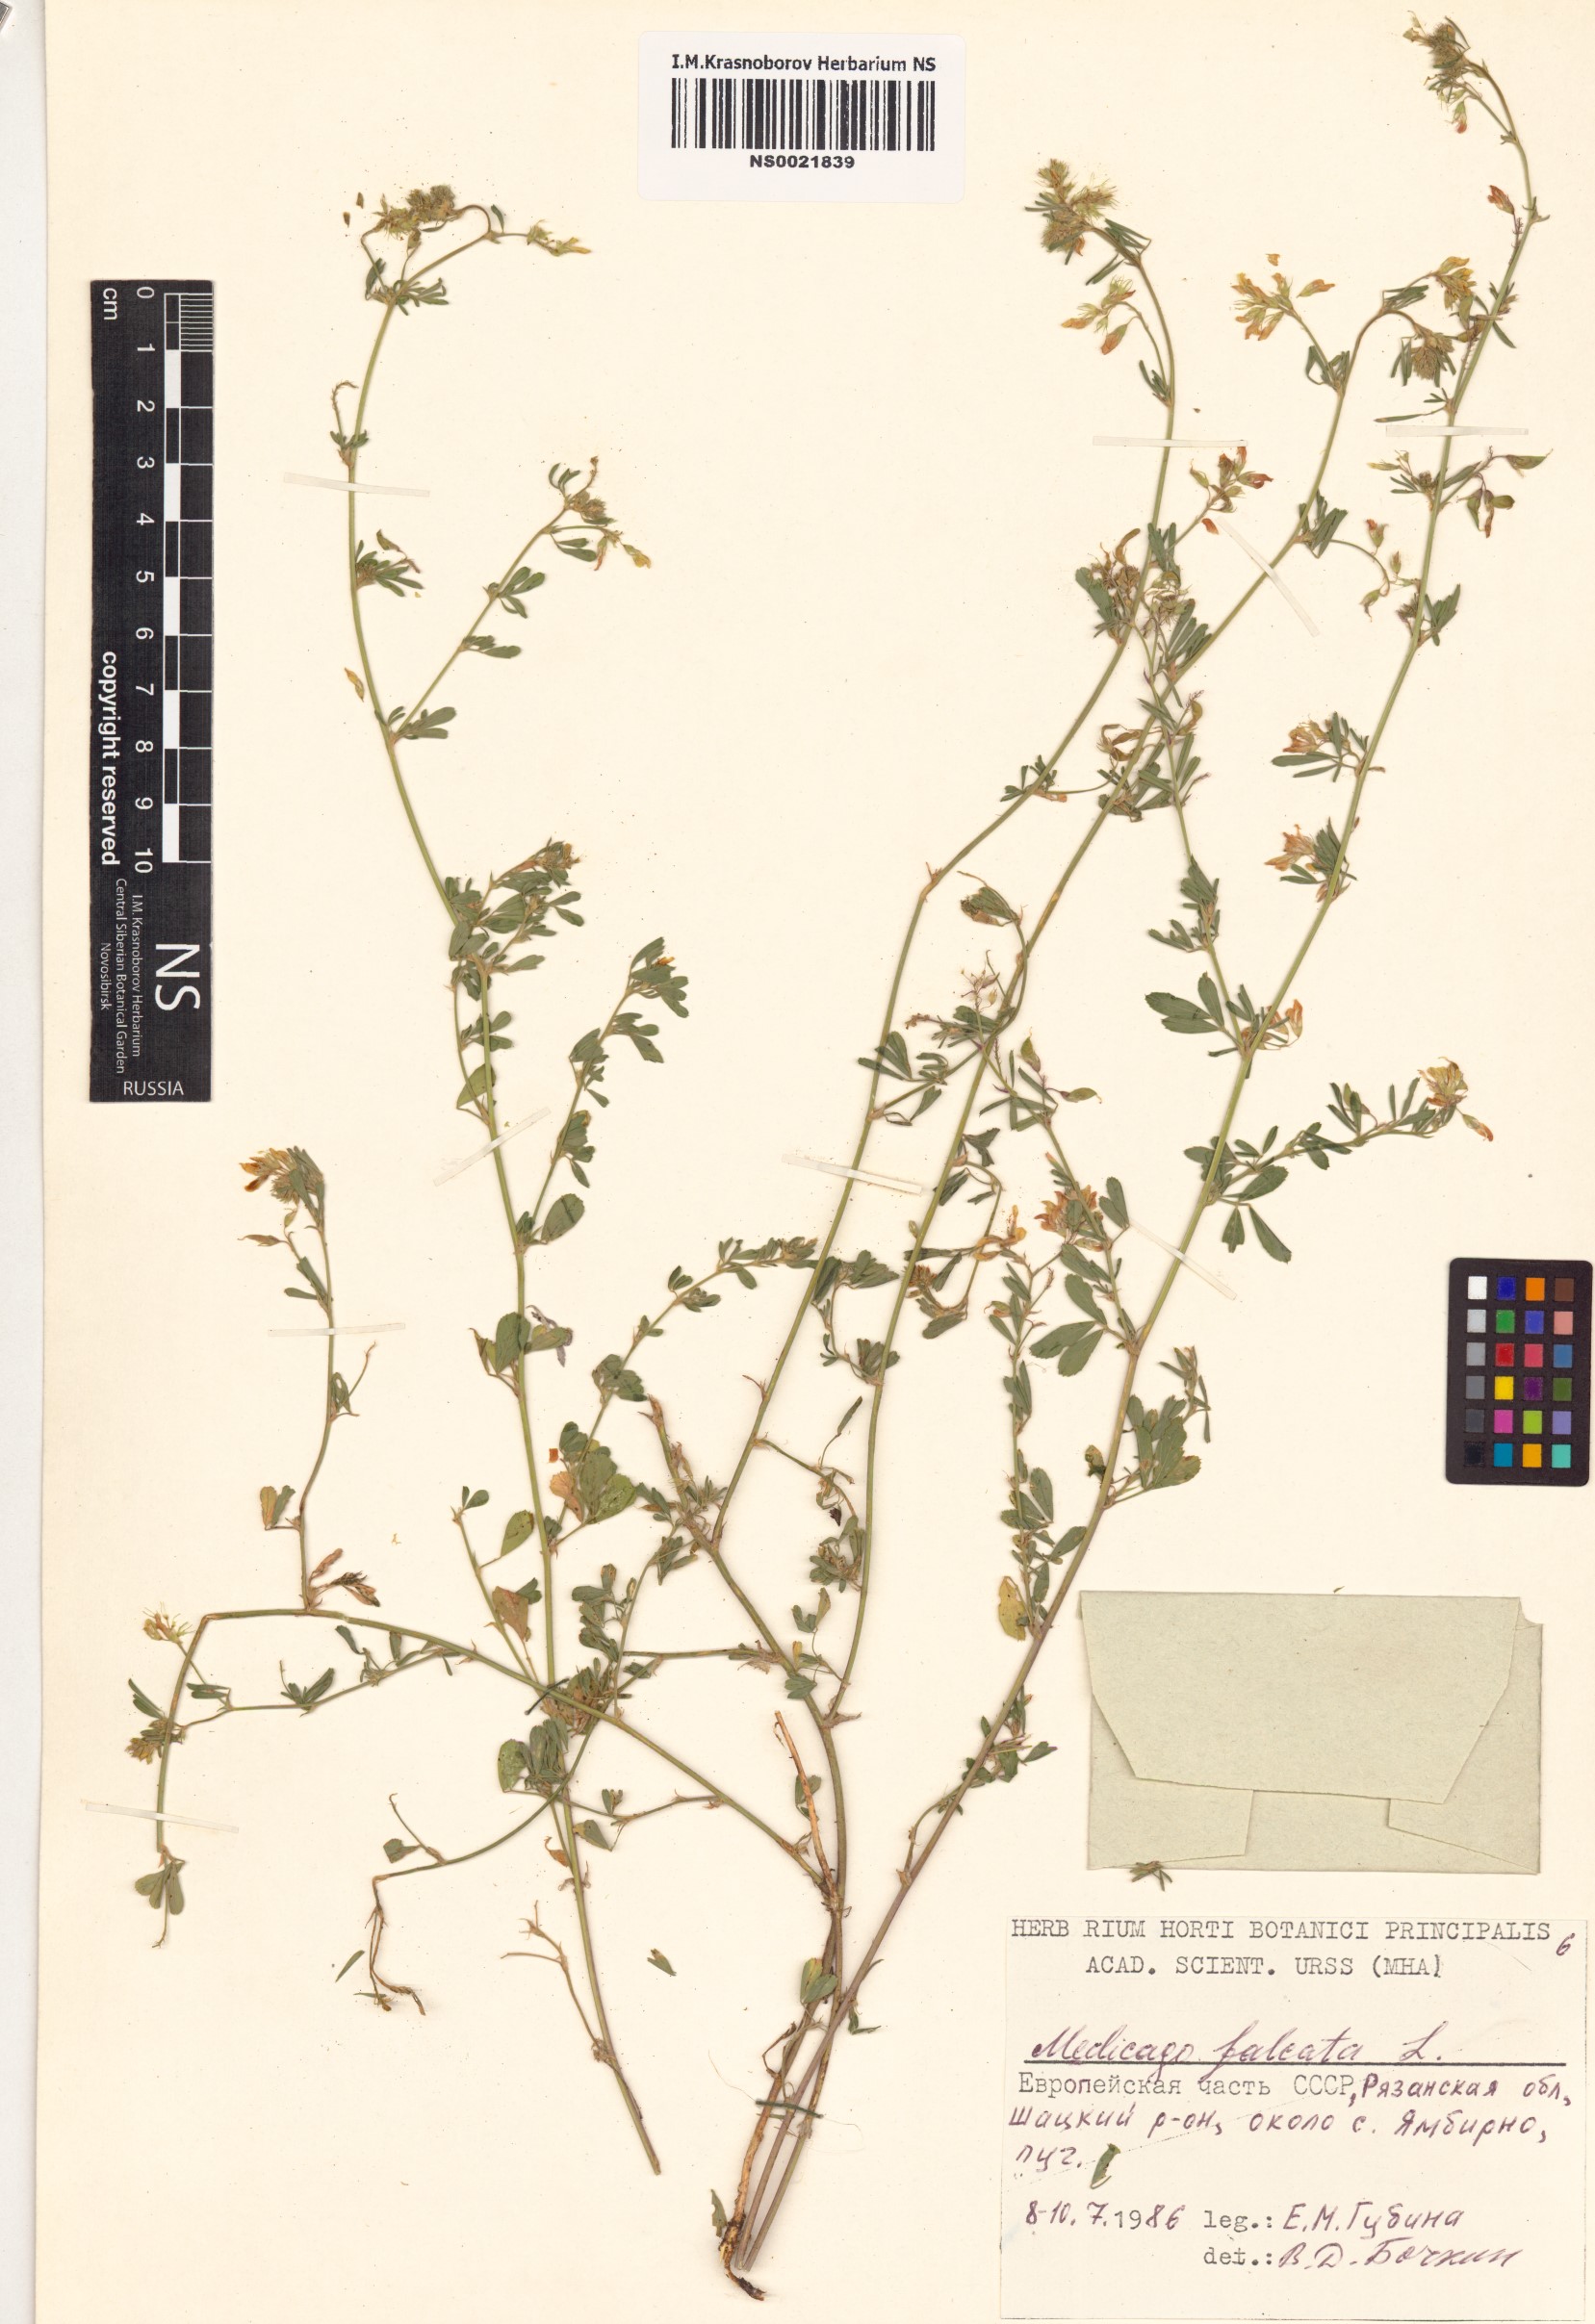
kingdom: Plantae
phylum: Tracheophyta
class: Magnoliopsida
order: Fabales
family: Fabaceae
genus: Medicago
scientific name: Medicago falcata
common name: Sickle medick
